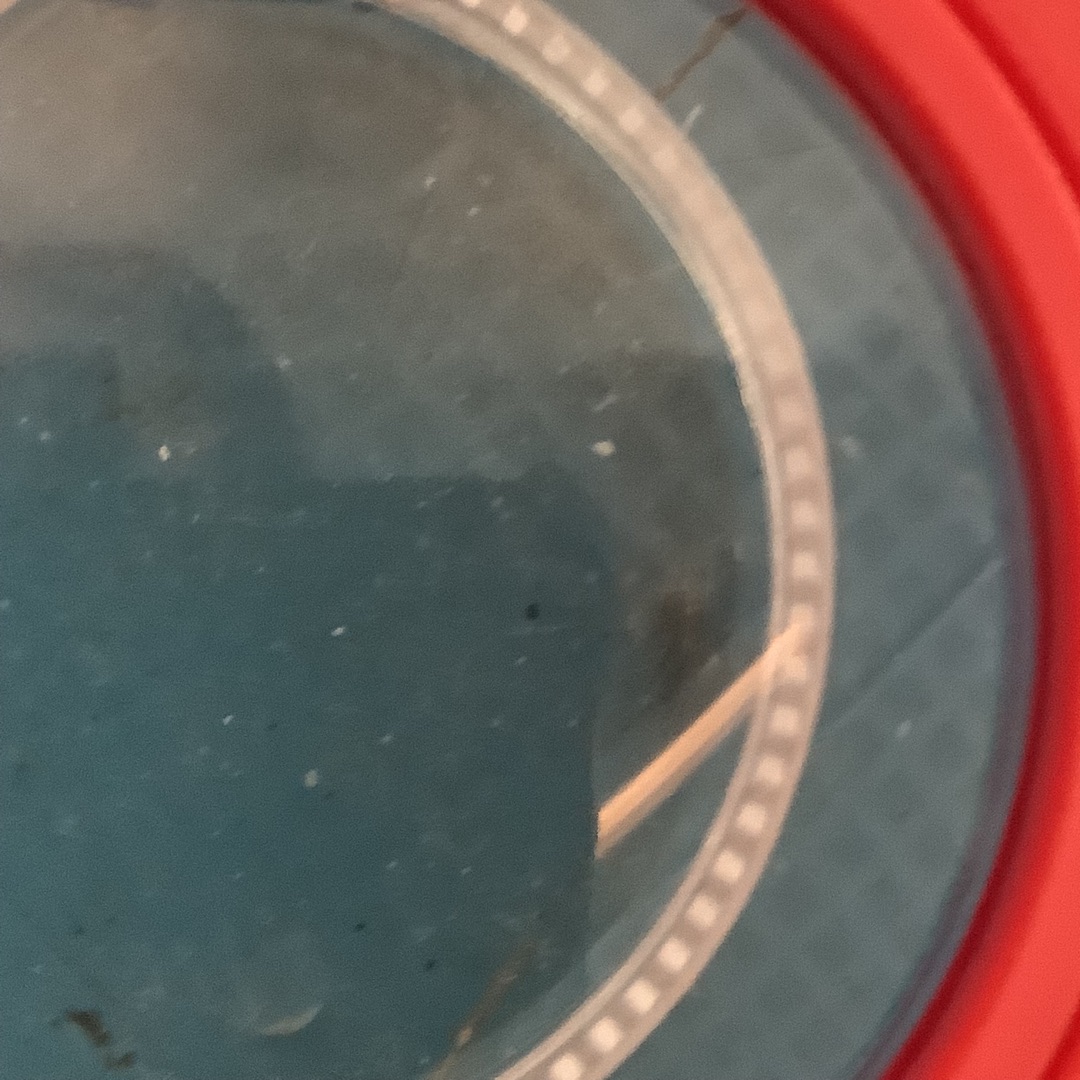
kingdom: Animalia
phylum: Arthropoda
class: Insecta
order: Hymenoptera
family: Formicidae
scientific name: Formicidae
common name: Myrer
